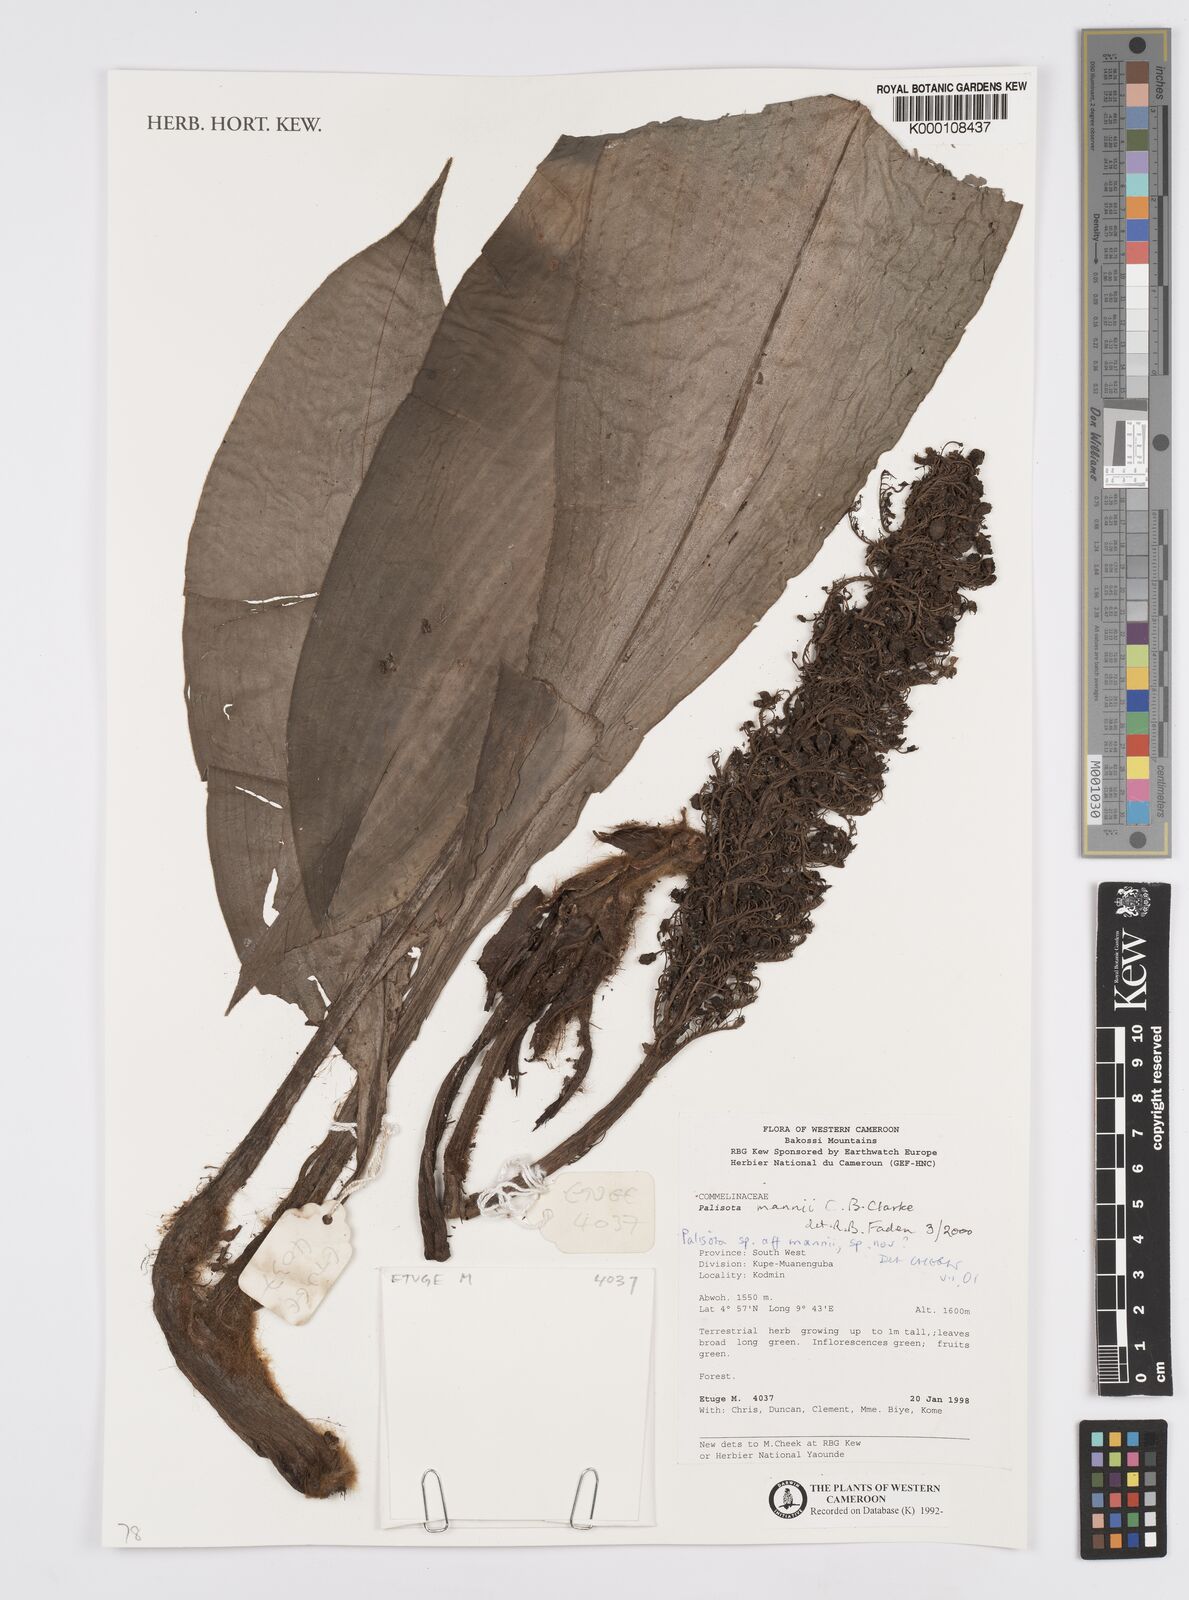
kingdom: Plantae
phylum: Tracheophyta
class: Liliopsida
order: Commelinales
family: Commelinaceae
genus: Palisota
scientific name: Palisota
